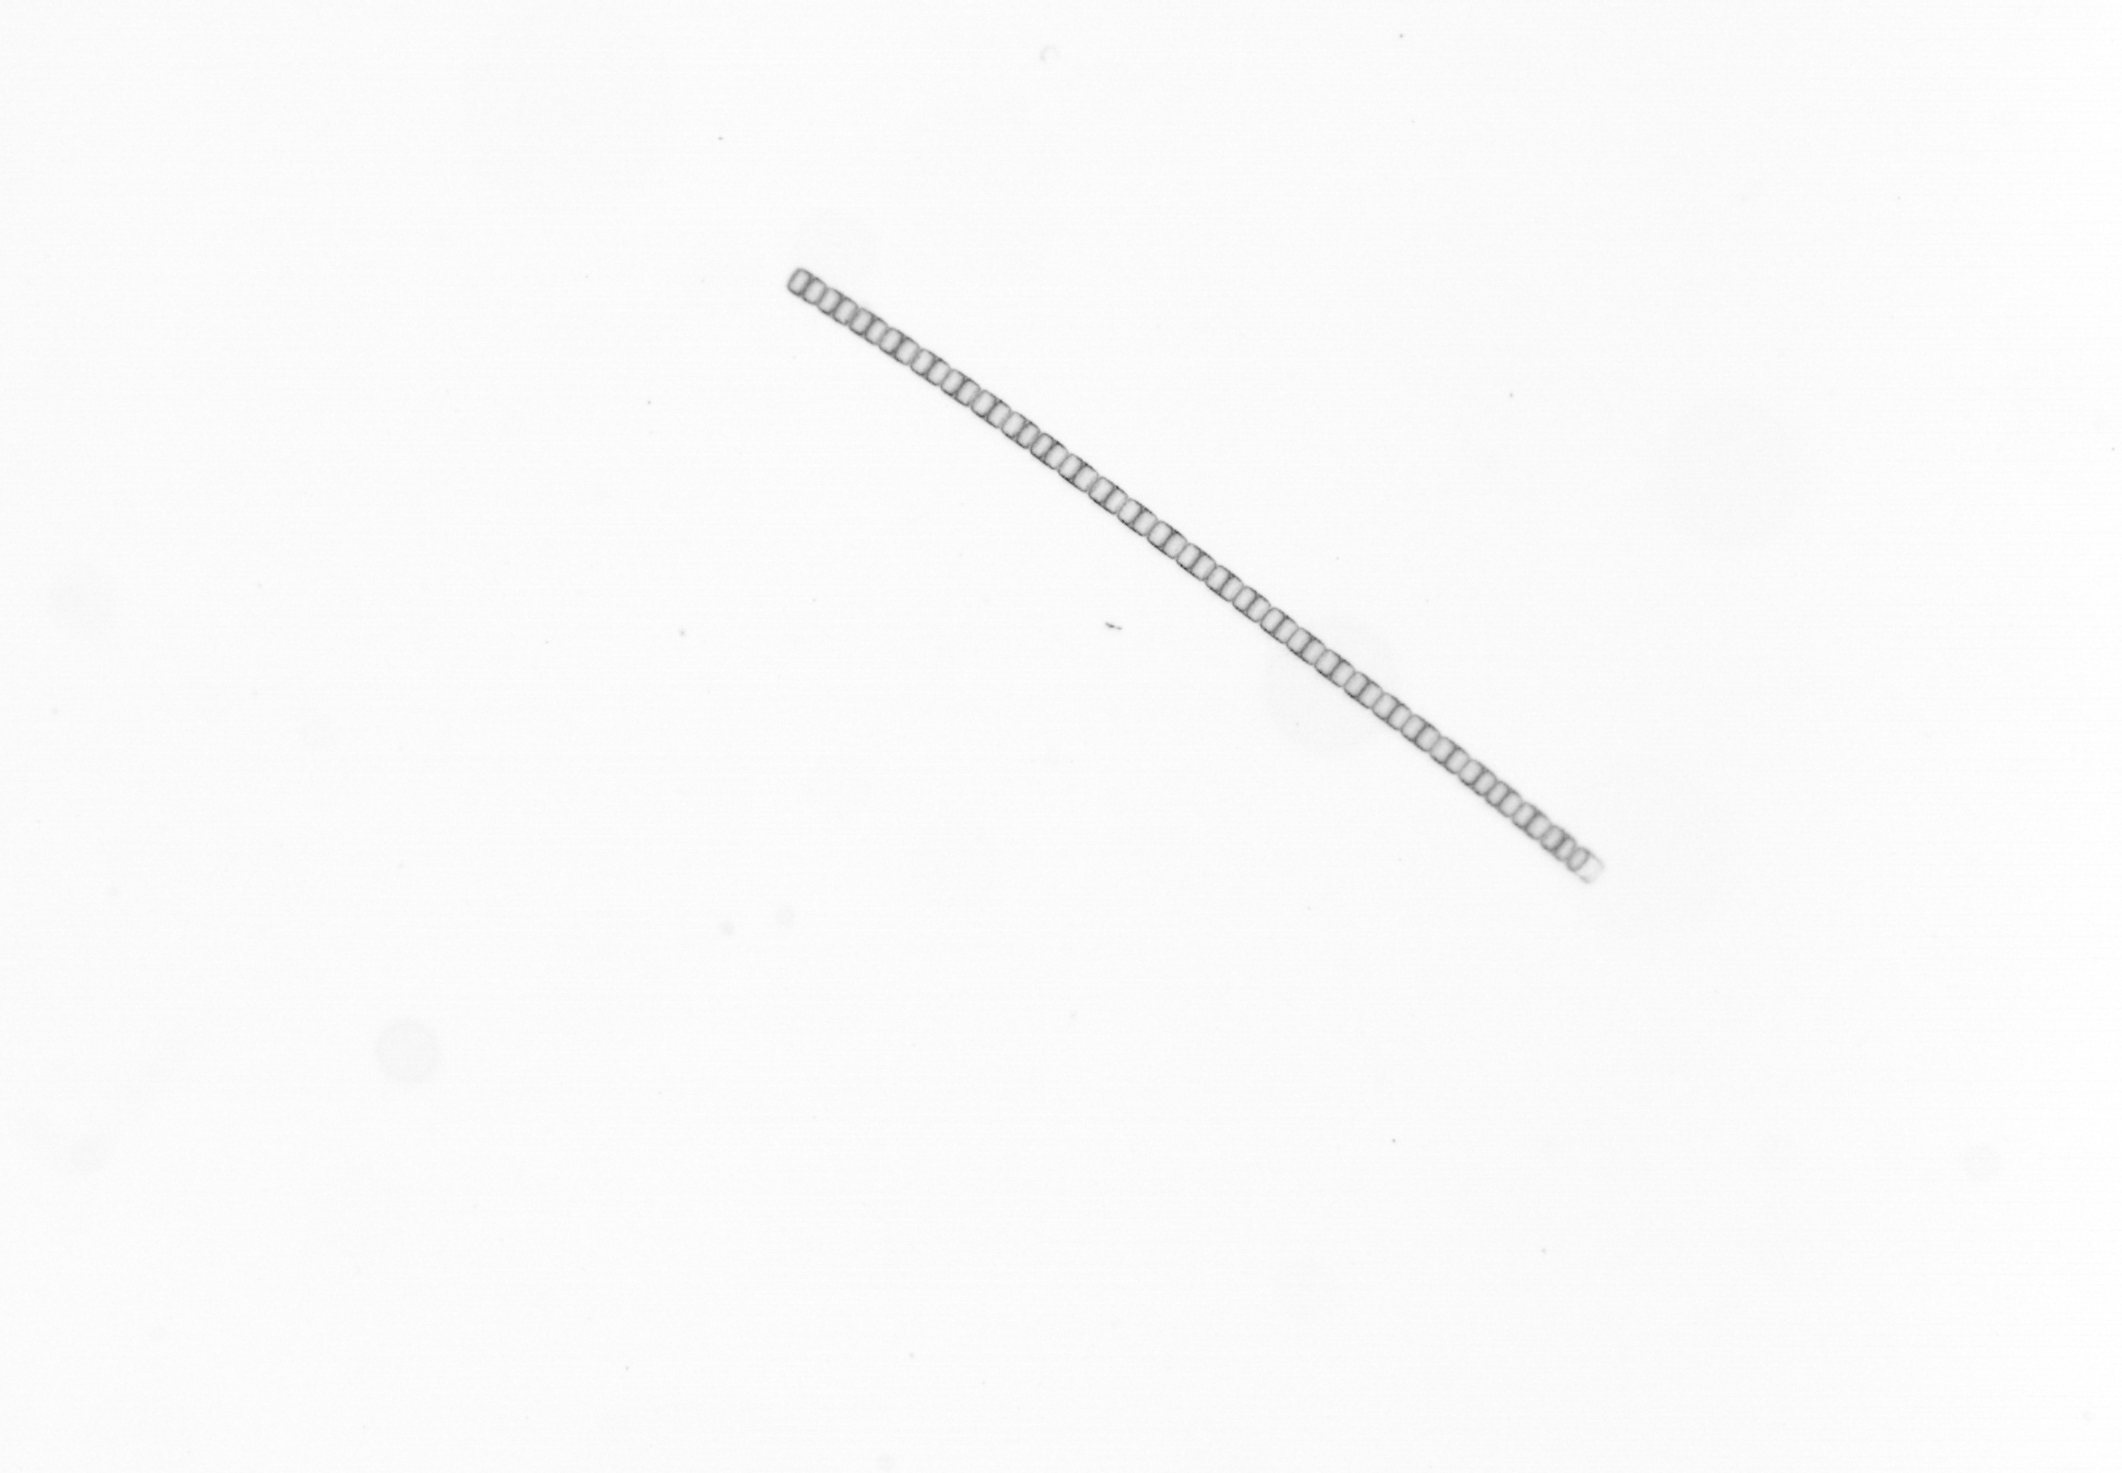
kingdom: Chromista
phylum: Ochrophyta
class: Bacillariophyceae
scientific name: Bacillariophyceae
